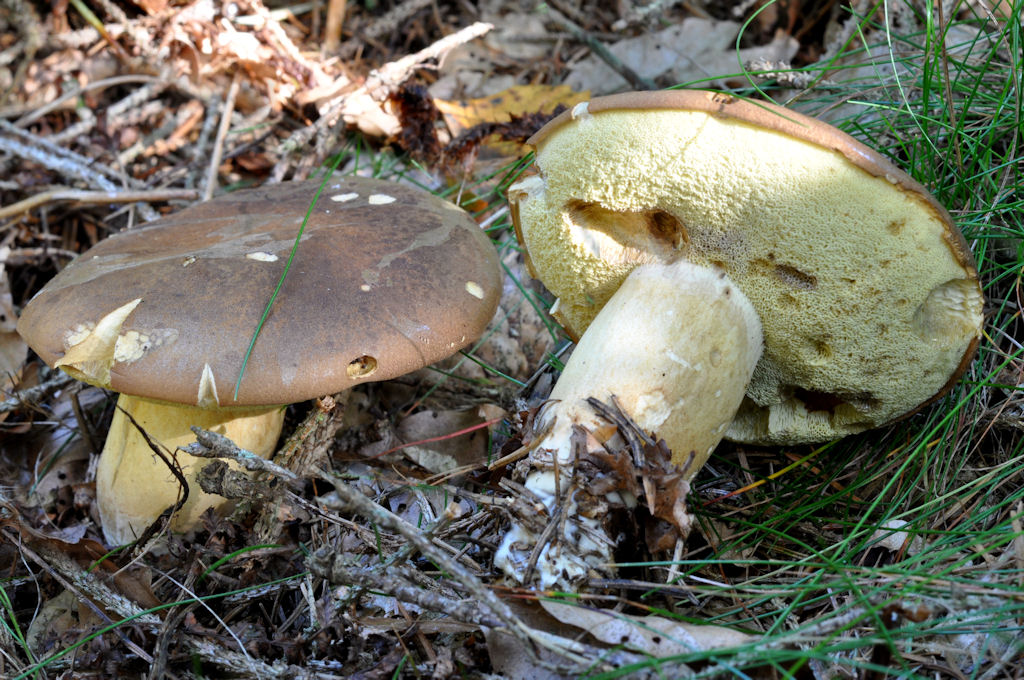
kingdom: Fungi
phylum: Basidiomycota
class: Agaricomycetes
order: Boletales
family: Boletaceae
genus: Imleria
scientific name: Imleria badia
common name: brunstokket rørhat
